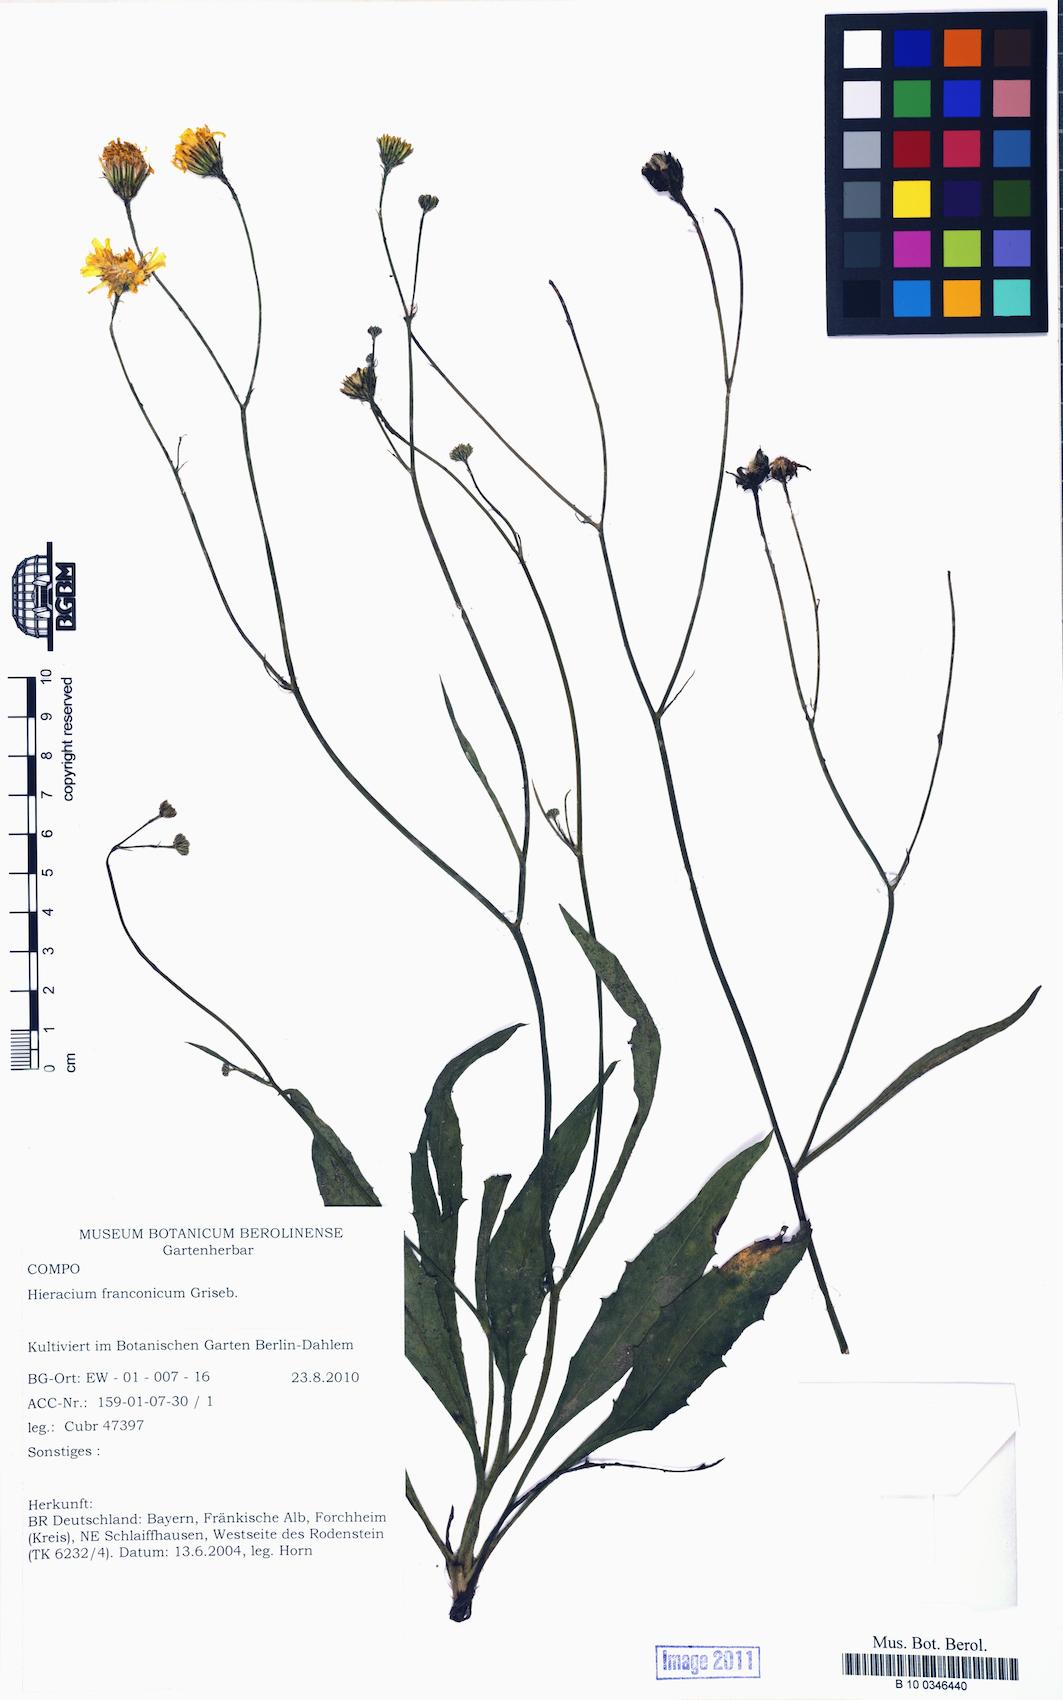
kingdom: Plantae
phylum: Tracheophyta
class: Magnoliopsida
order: Asterales
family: Asteraceae
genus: Hieracium
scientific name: Hieracium franconicum
